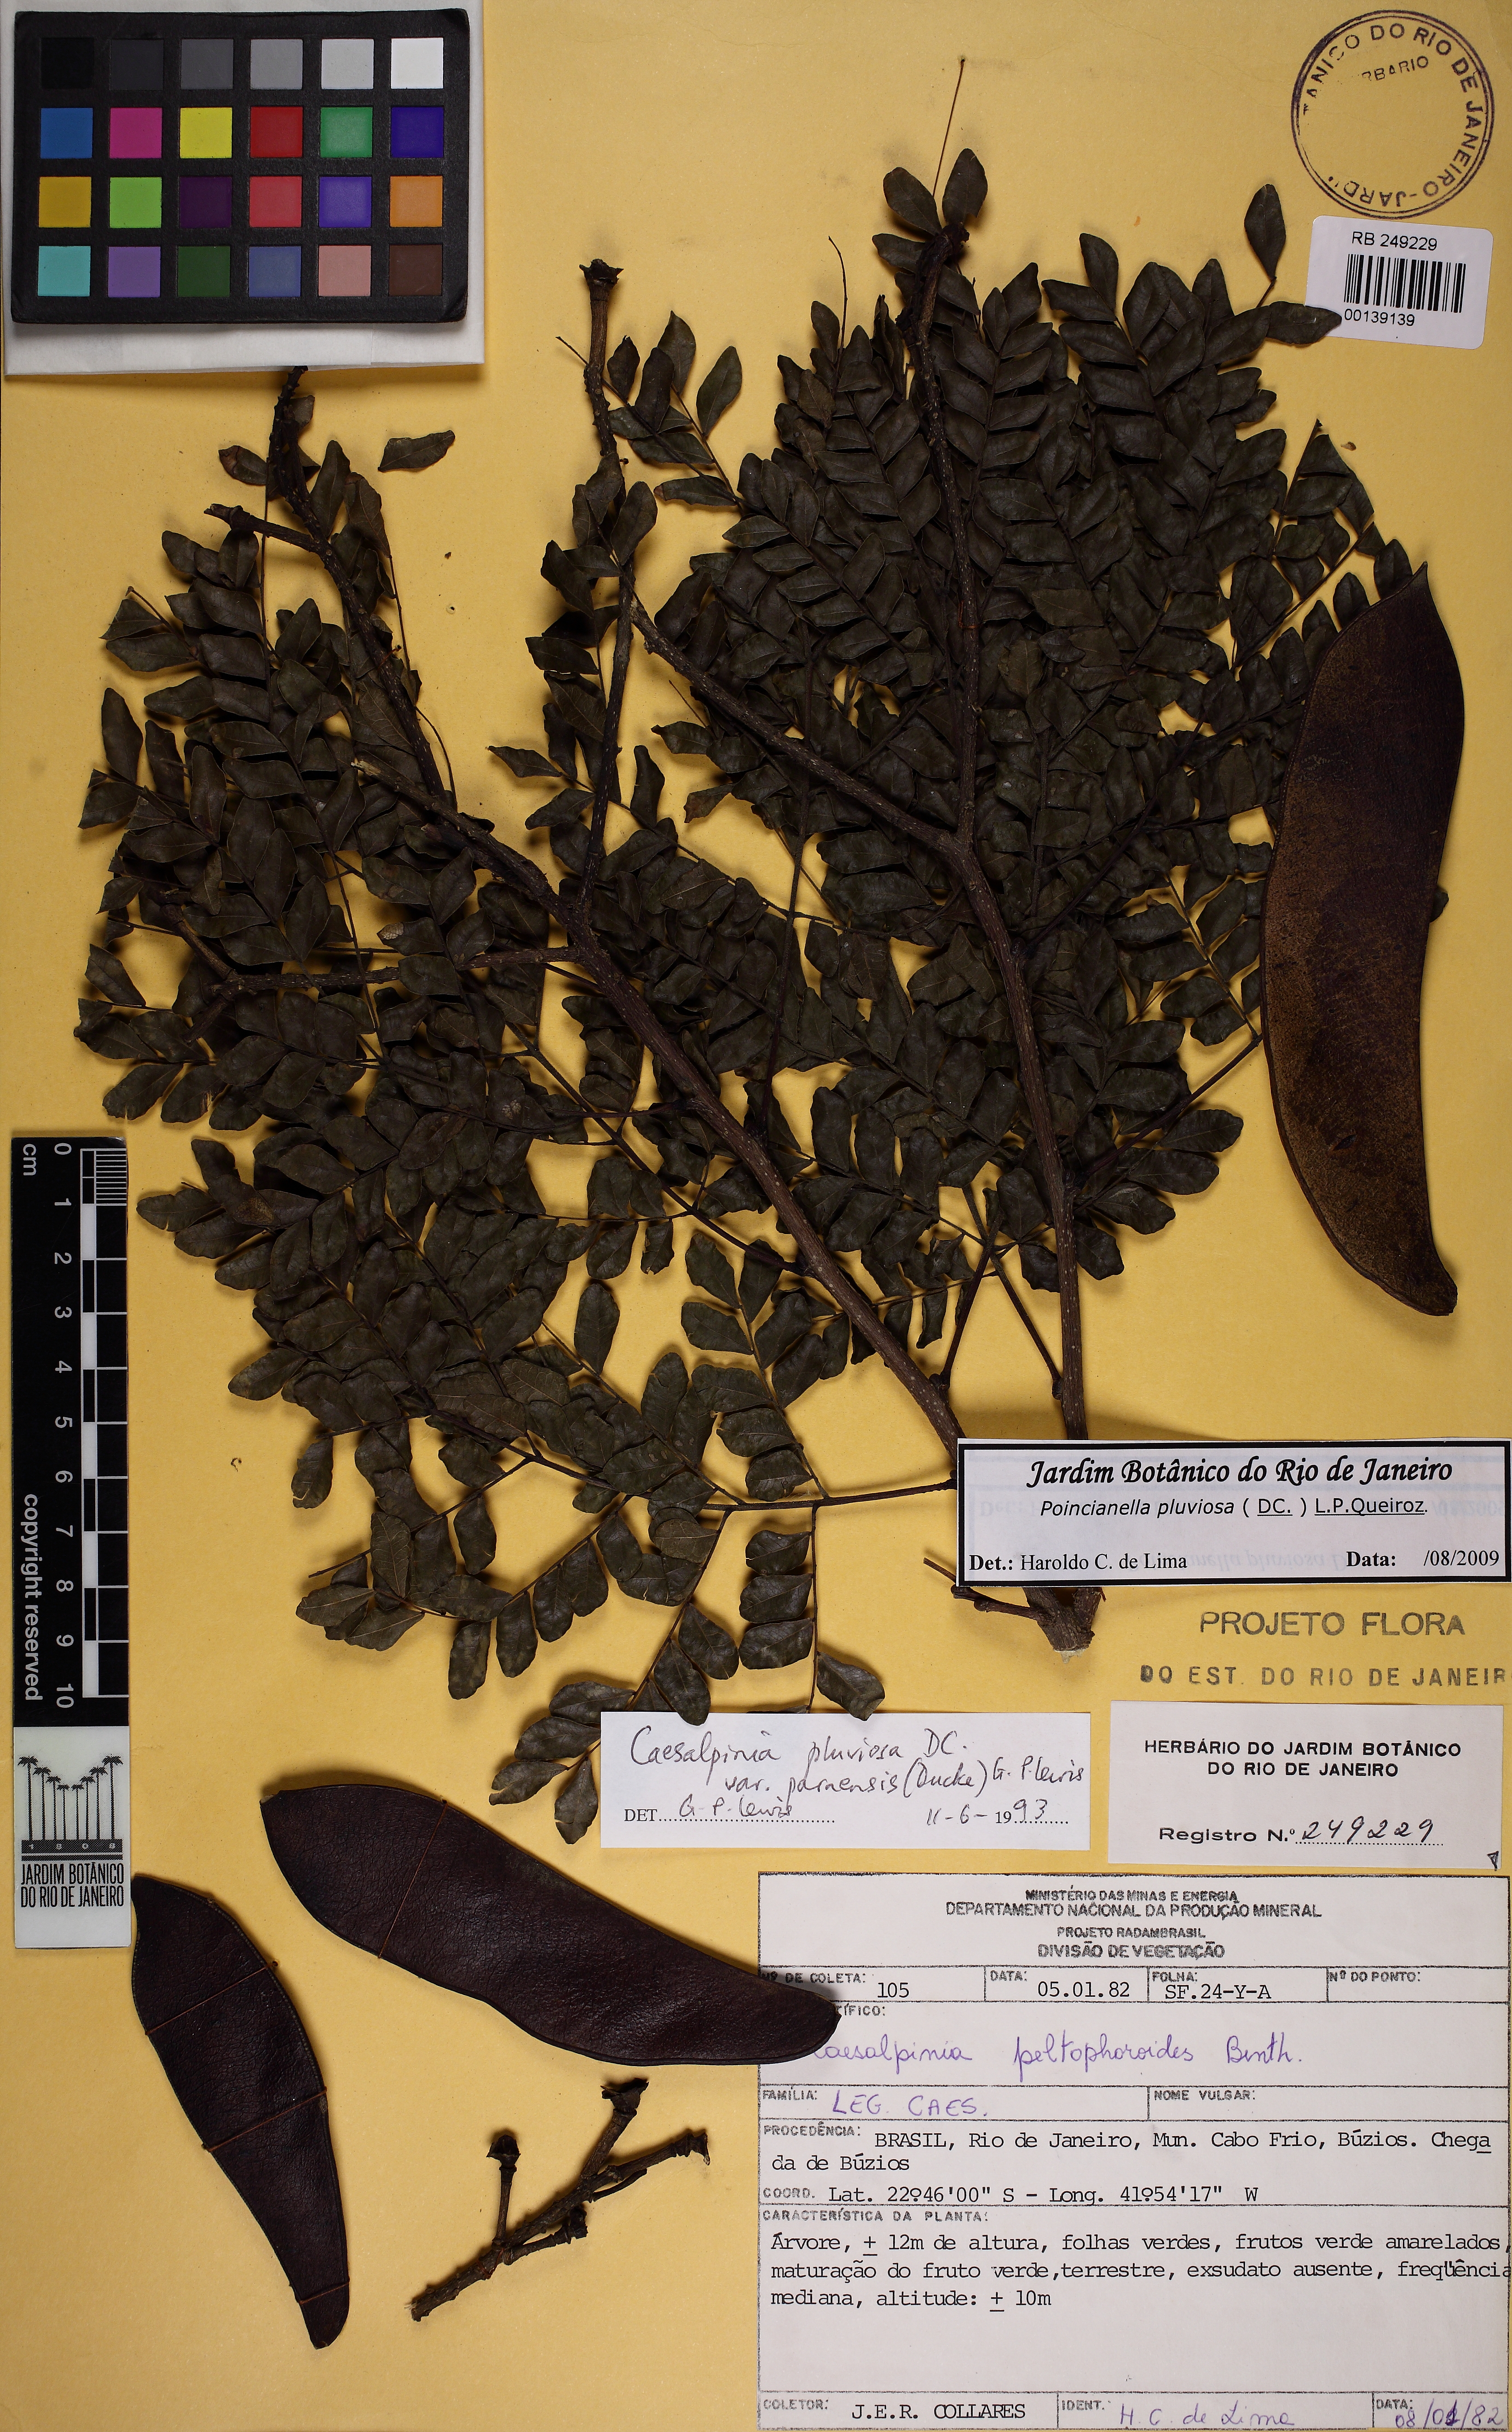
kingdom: Plantae
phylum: Tracheophyta
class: Magnoliopsida
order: Fabales
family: Fabaceae
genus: Cenostigma
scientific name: Cenostigma pluviosum
